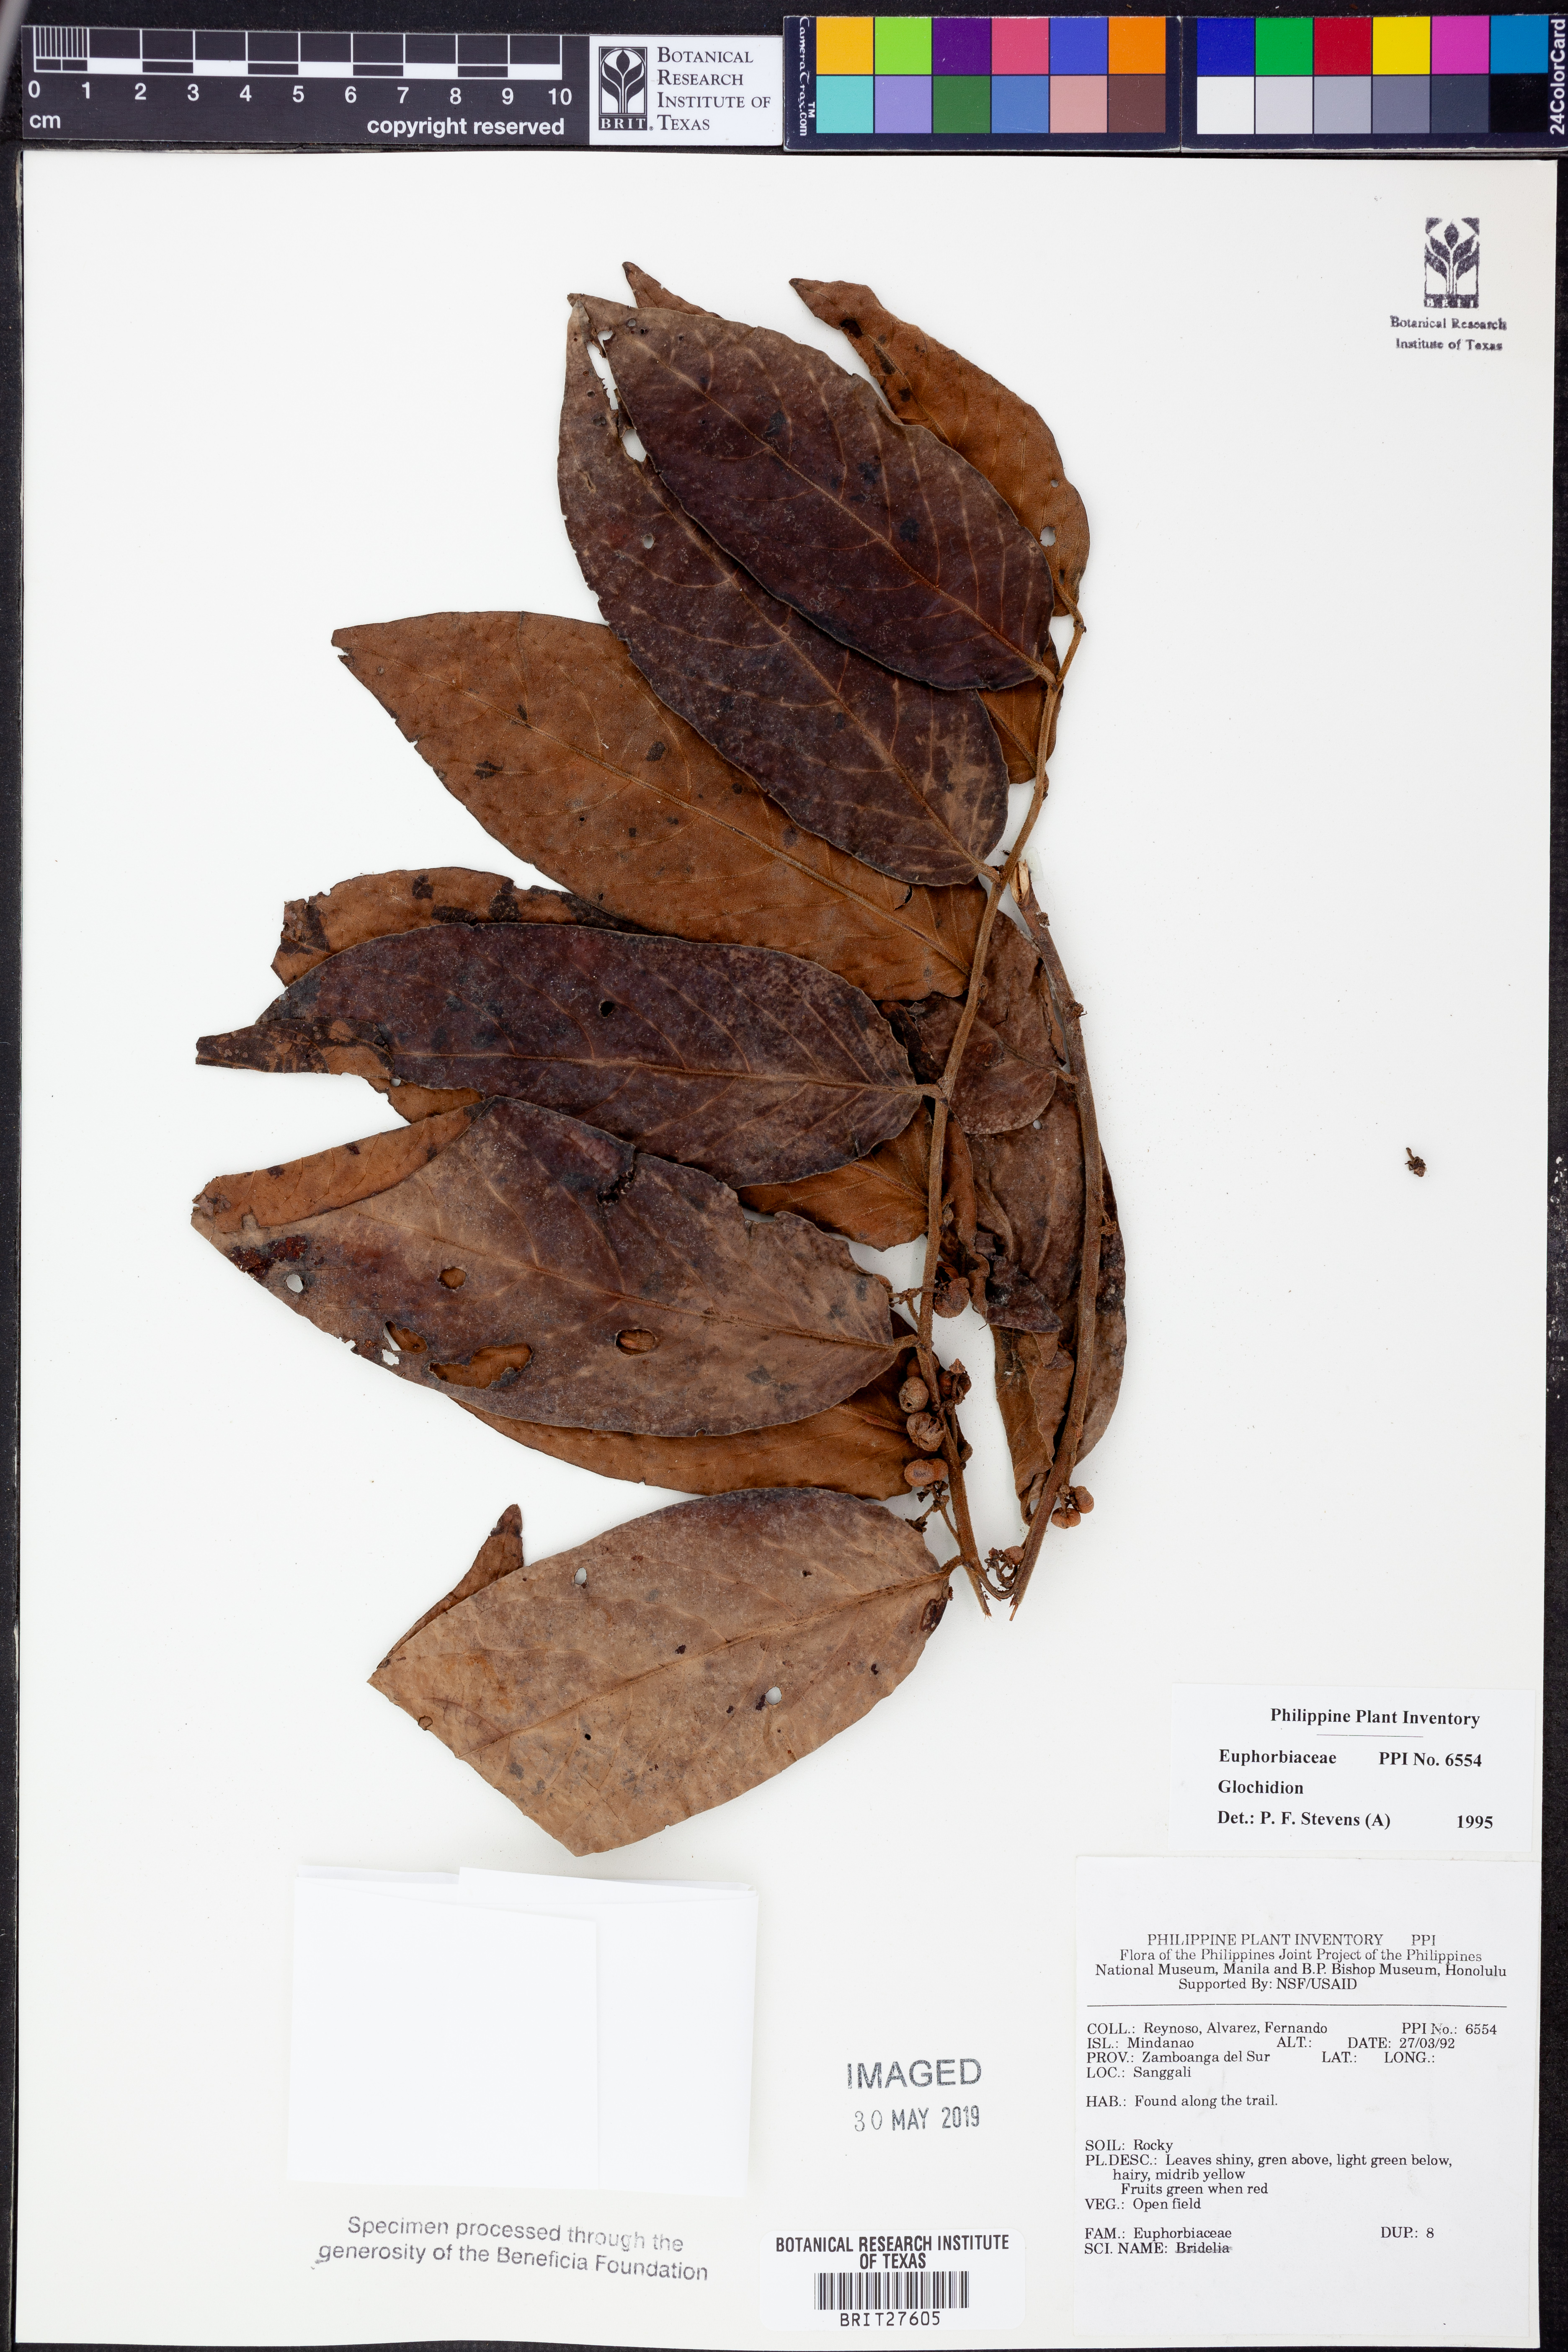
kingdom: Plantae
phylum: Tracheophyta
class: Magnoliopsida
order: Malpighiales
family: Phyllanthaceae
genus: Glochidion
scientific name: Glochidion
